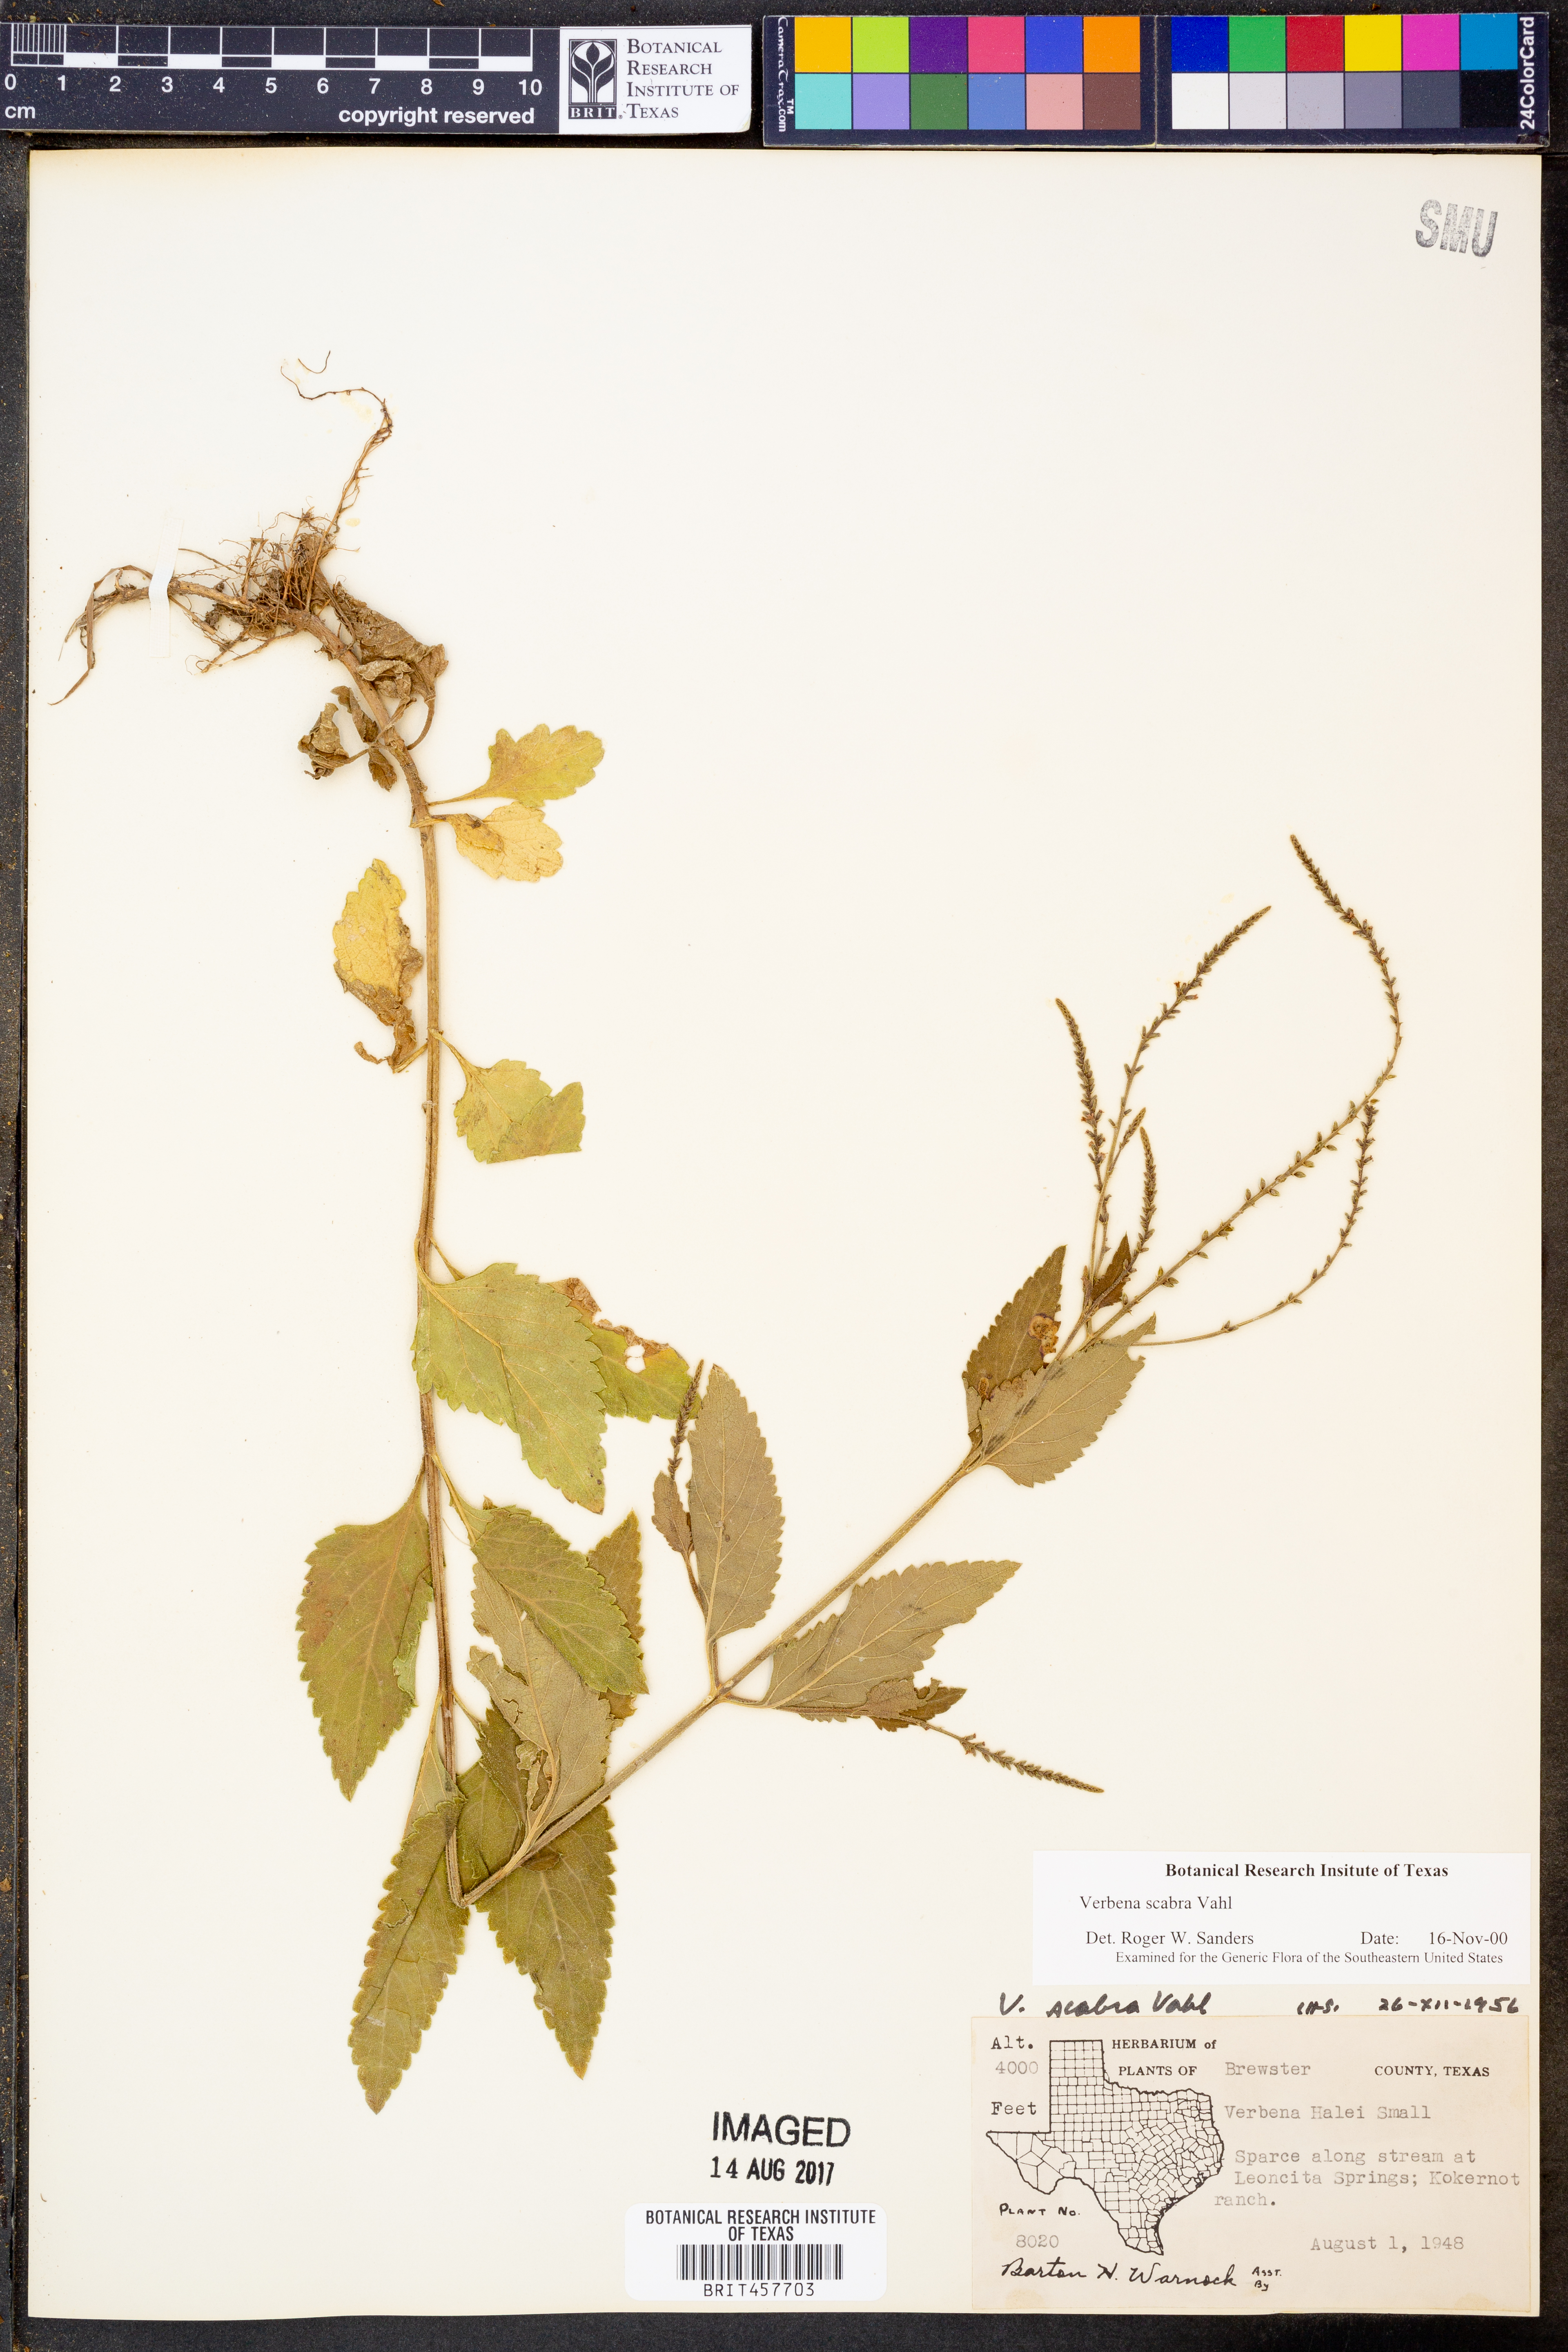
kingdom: Plantae
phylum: Tracheophyta
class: Magnoliopsida
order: Lamiales
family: Verbenaceae
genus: Verbena
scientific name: Verbena scabra
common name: Sandpaper vervain
